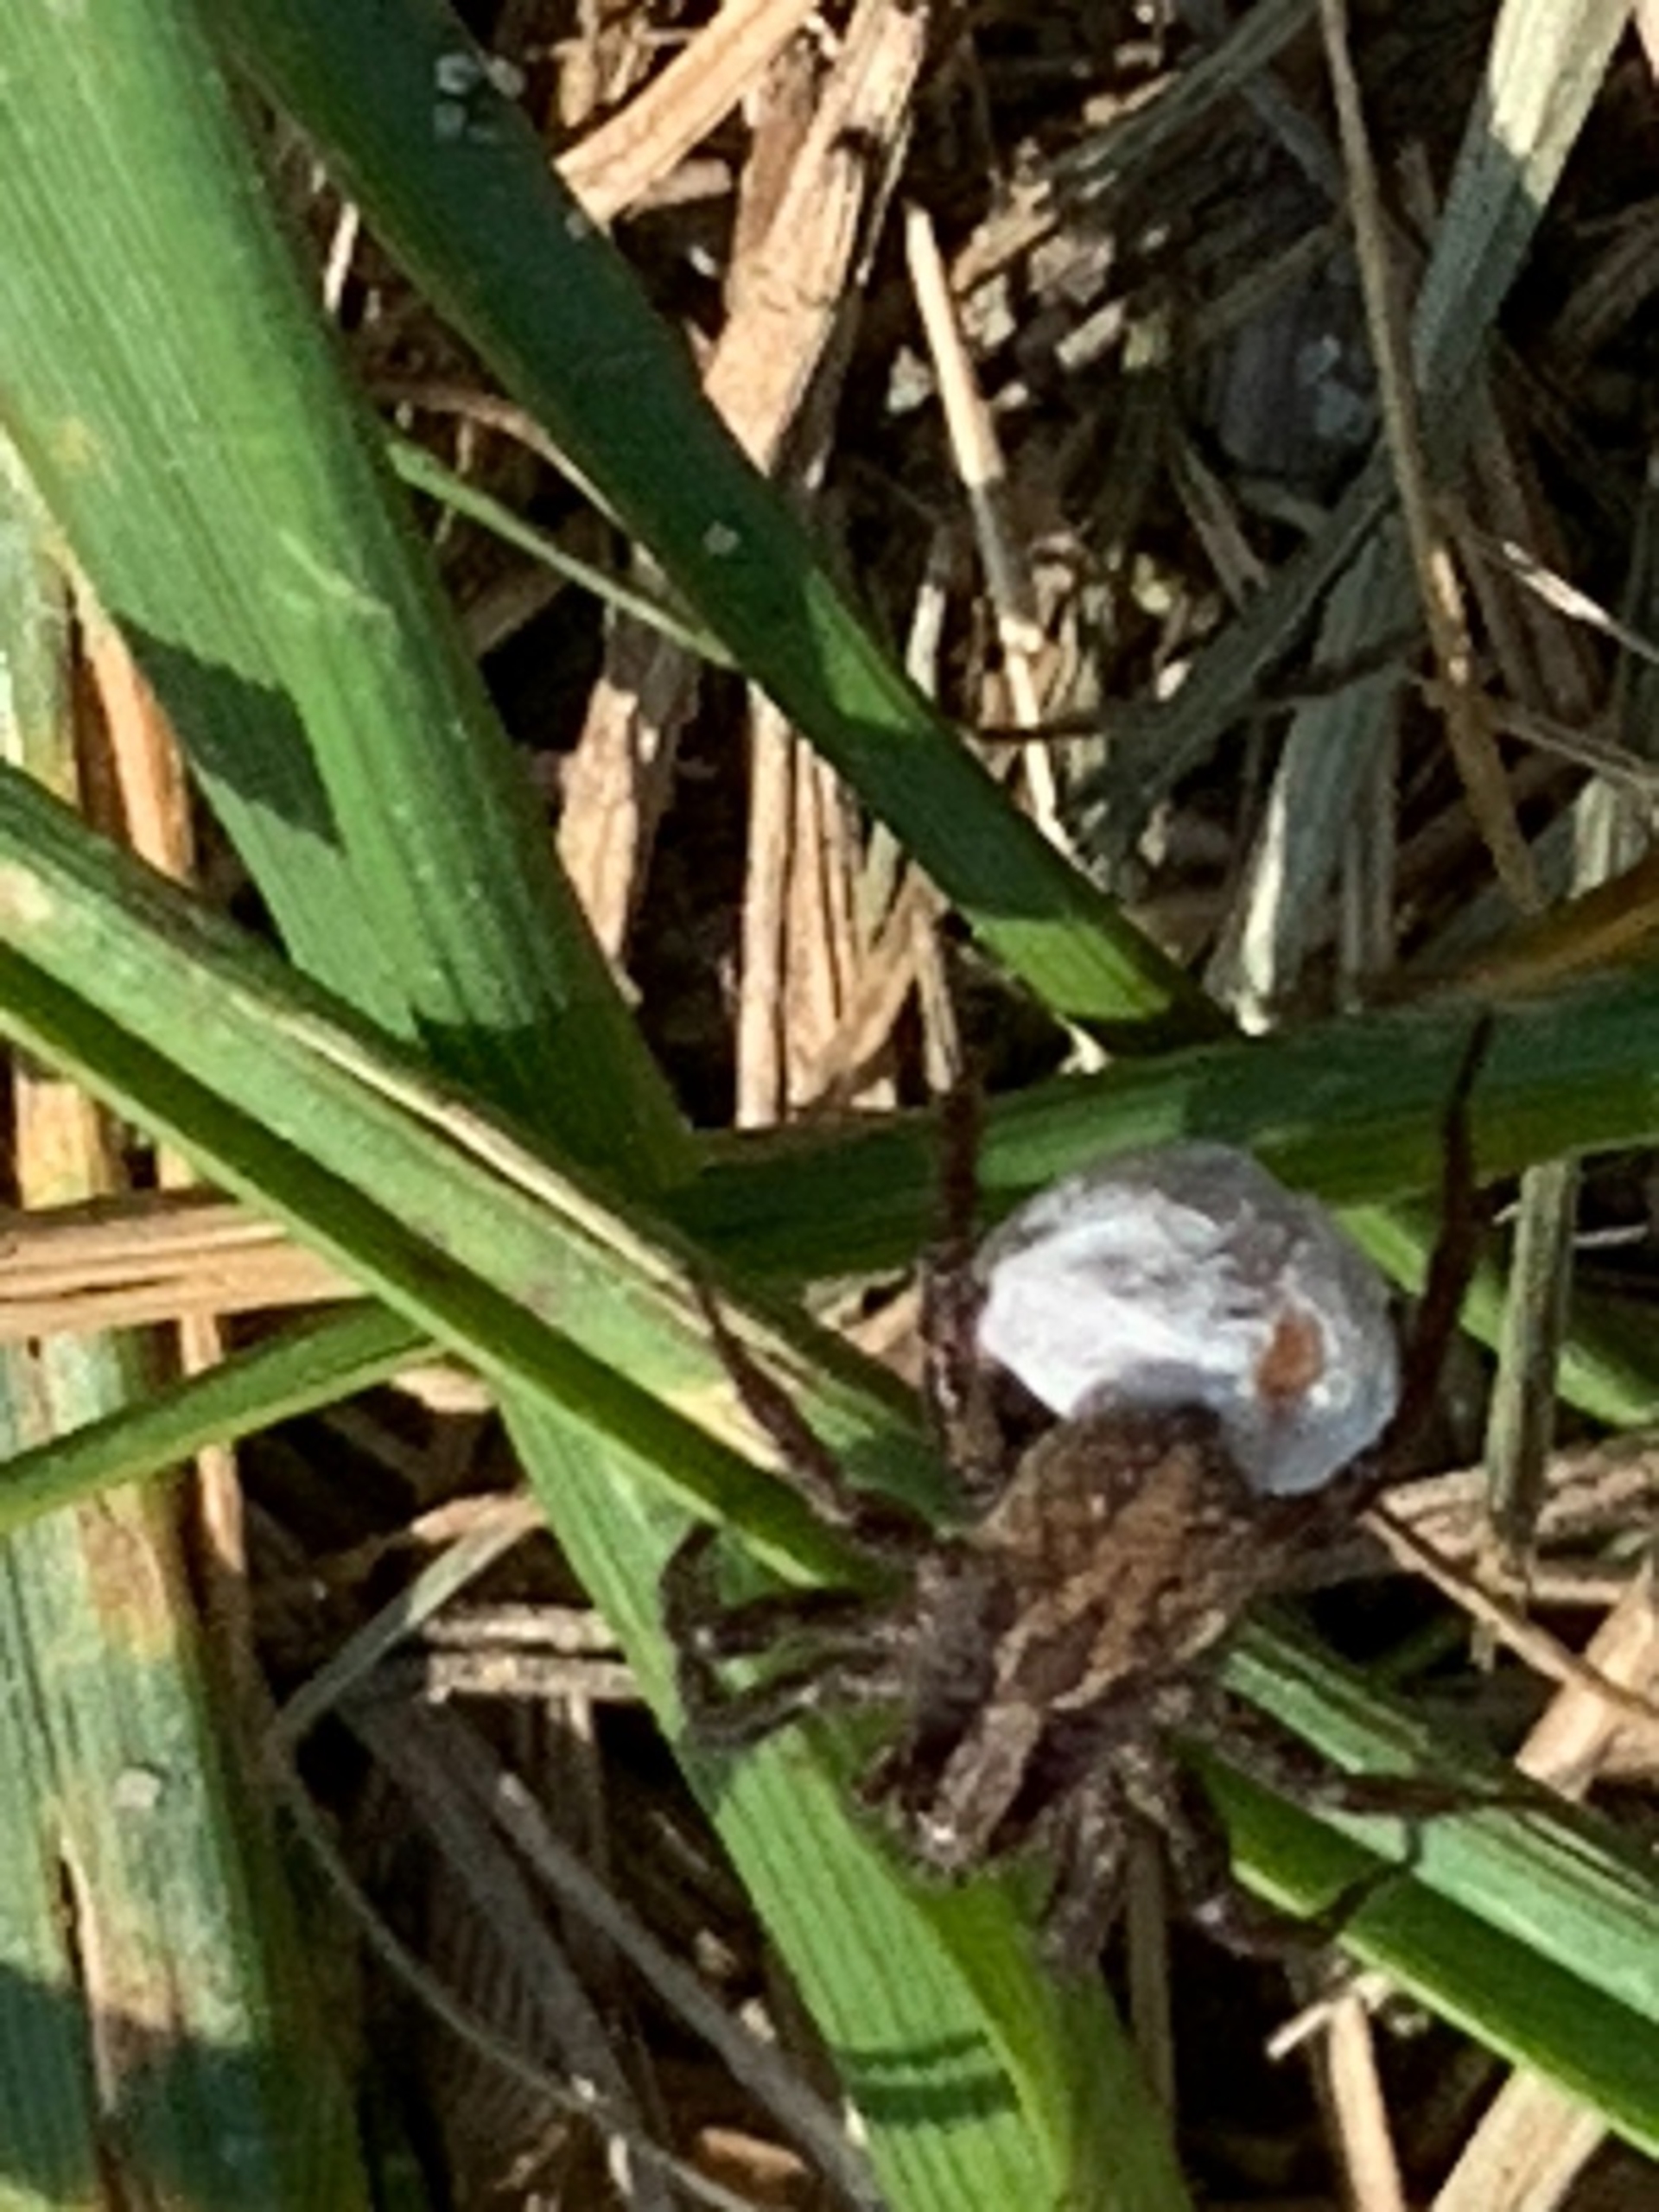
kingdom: Animalia
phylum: Arthropoda
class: Arachnida
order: Araneae
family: Lycosidae
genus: Alopecosa
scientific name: Alopecosa pulverulenta
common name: Kilekæmpejæger
